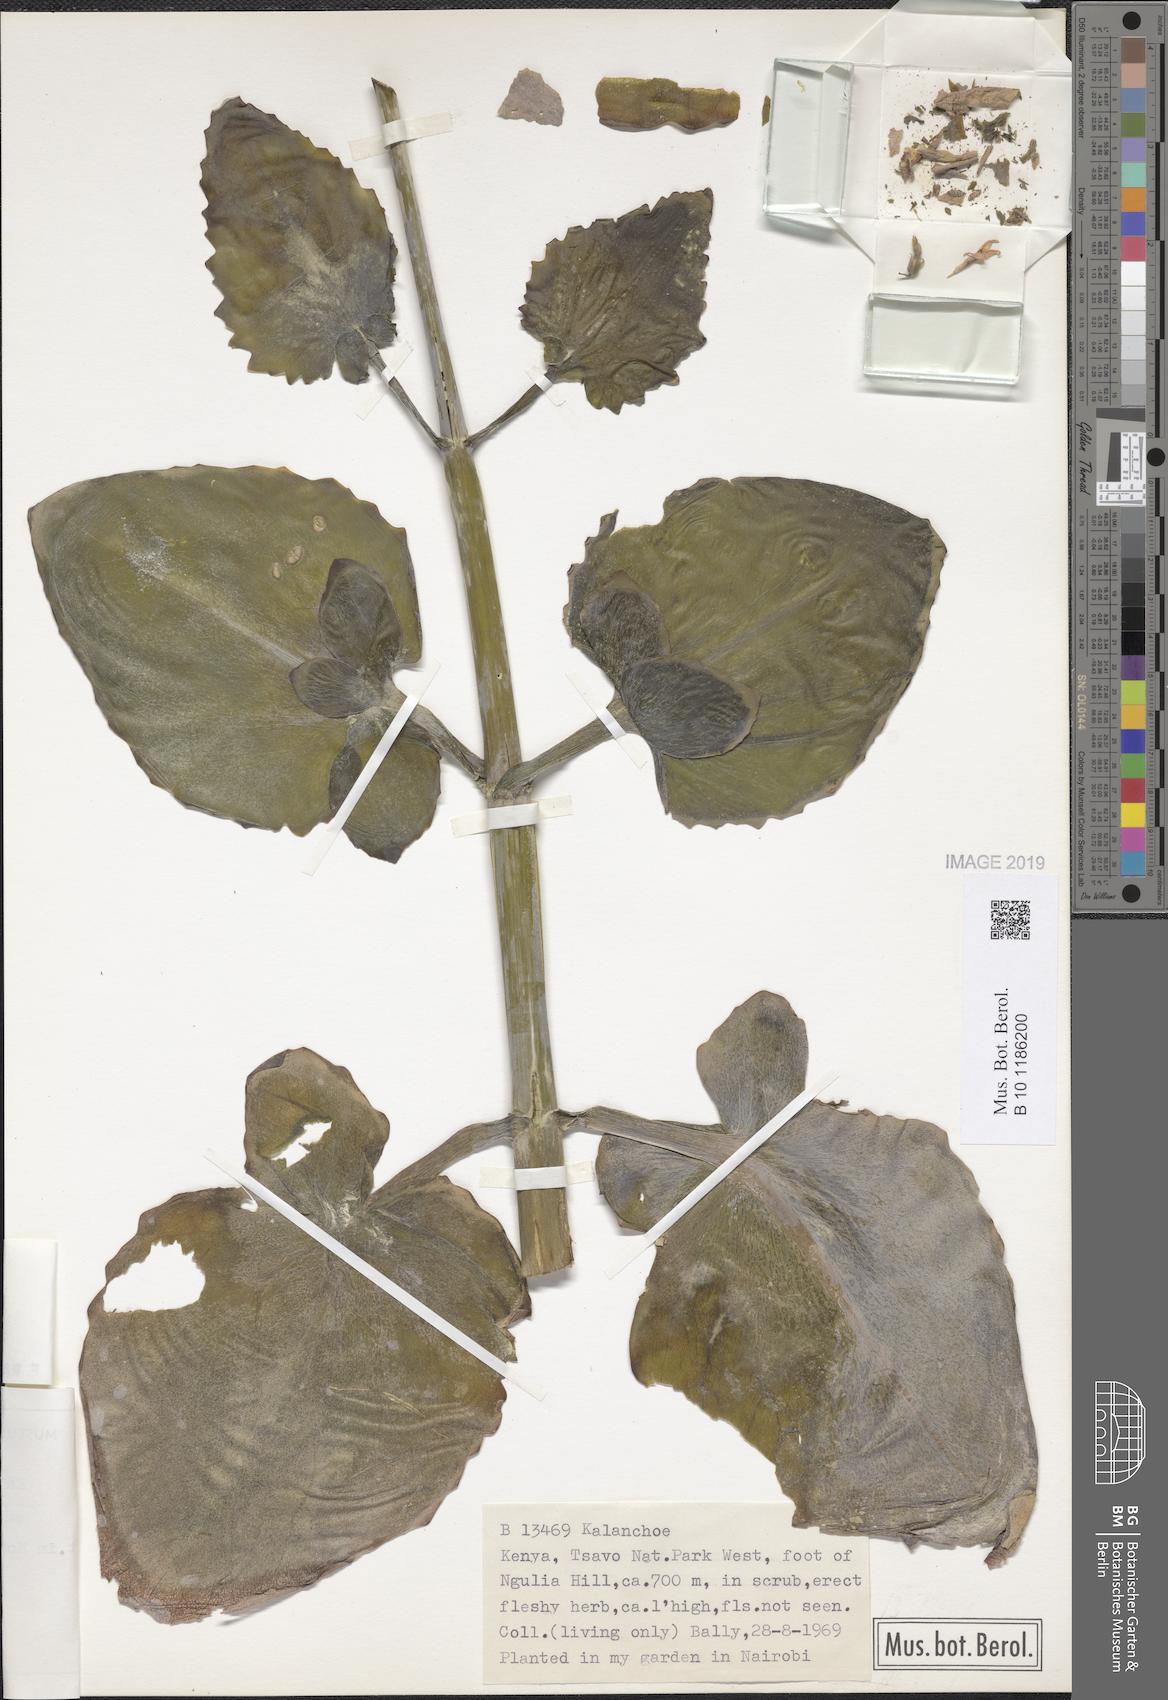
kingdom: Plantae
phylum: Tracheophyta
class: Magnoliopsida
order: Saxifragales
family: Crassulaceae
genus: Kalanchoe
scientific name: Kalanchoe auriculata
